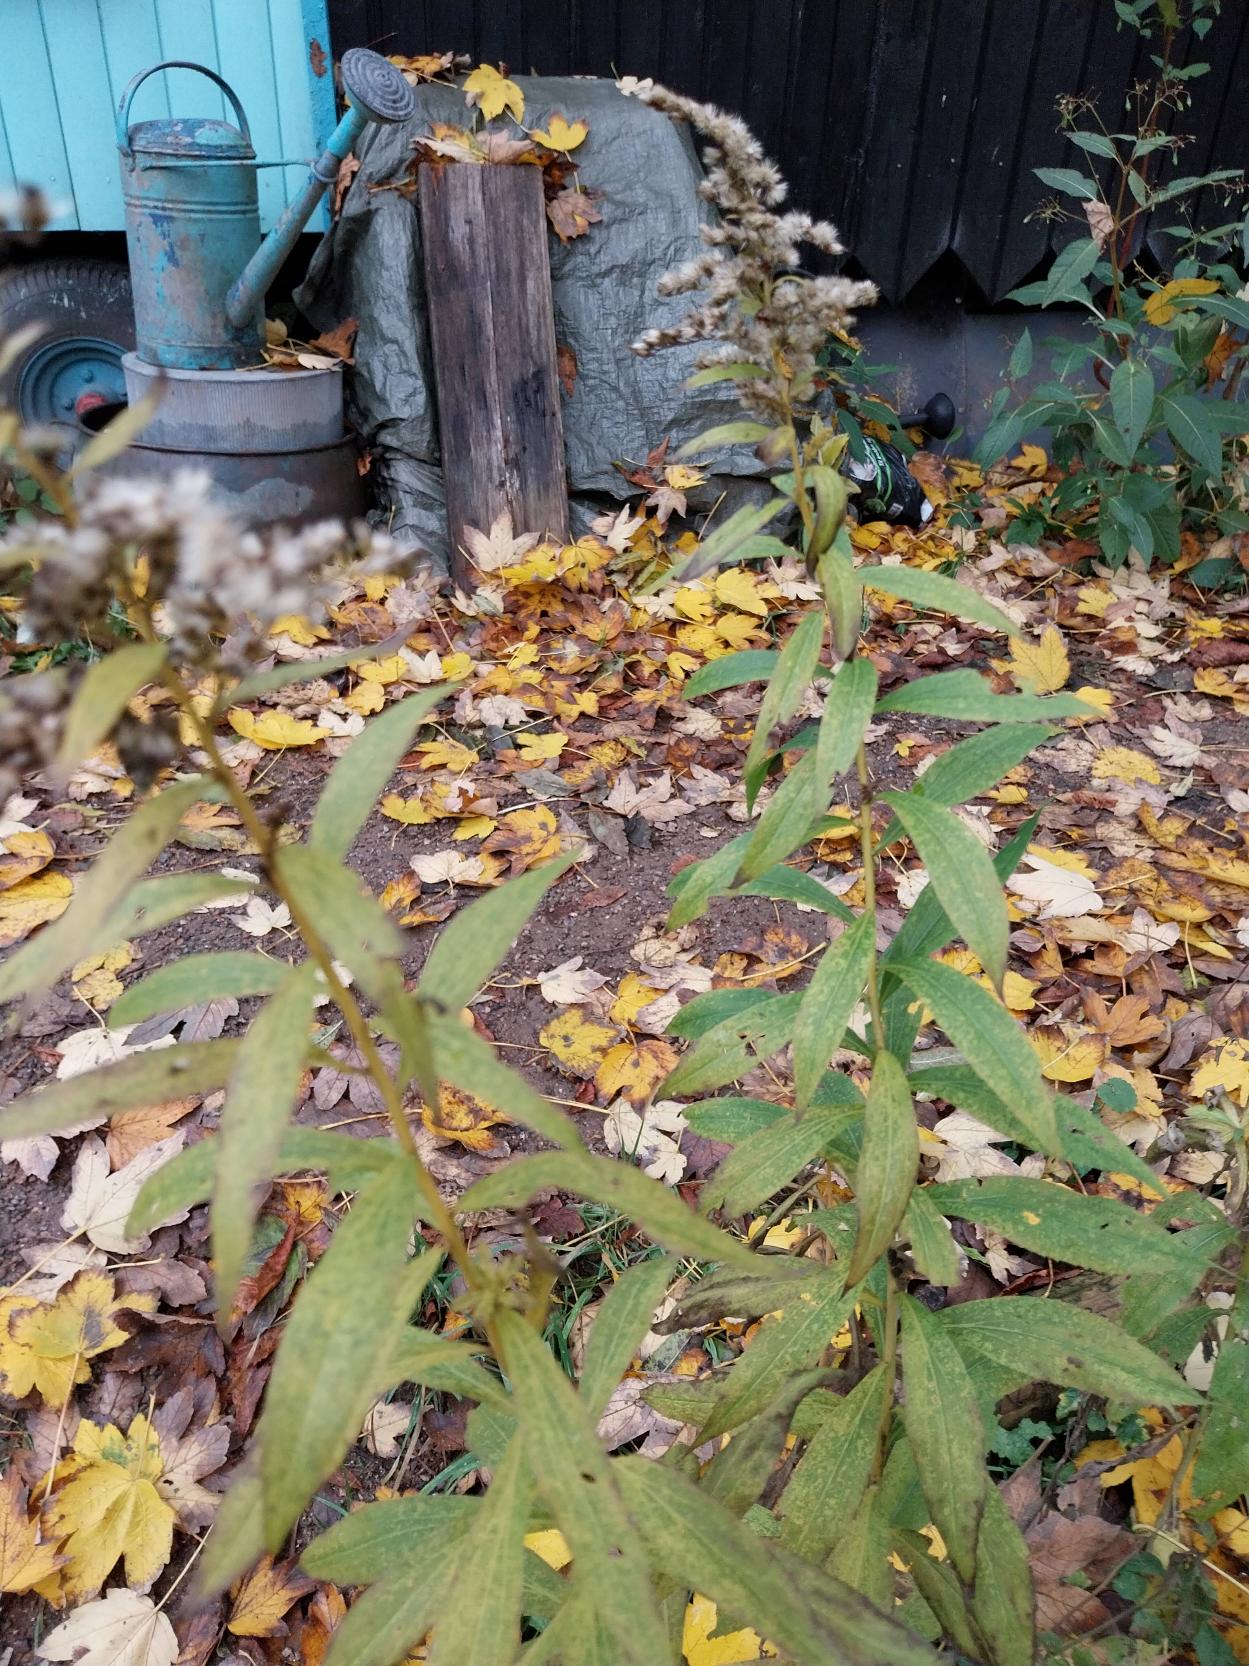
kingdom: Plantae
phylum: Tracheophyta
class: Magnoliopsida
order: Asterales
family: Asteraceae
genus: Solidago
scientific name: Solidago gigantea
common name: Sildig gyldenris
